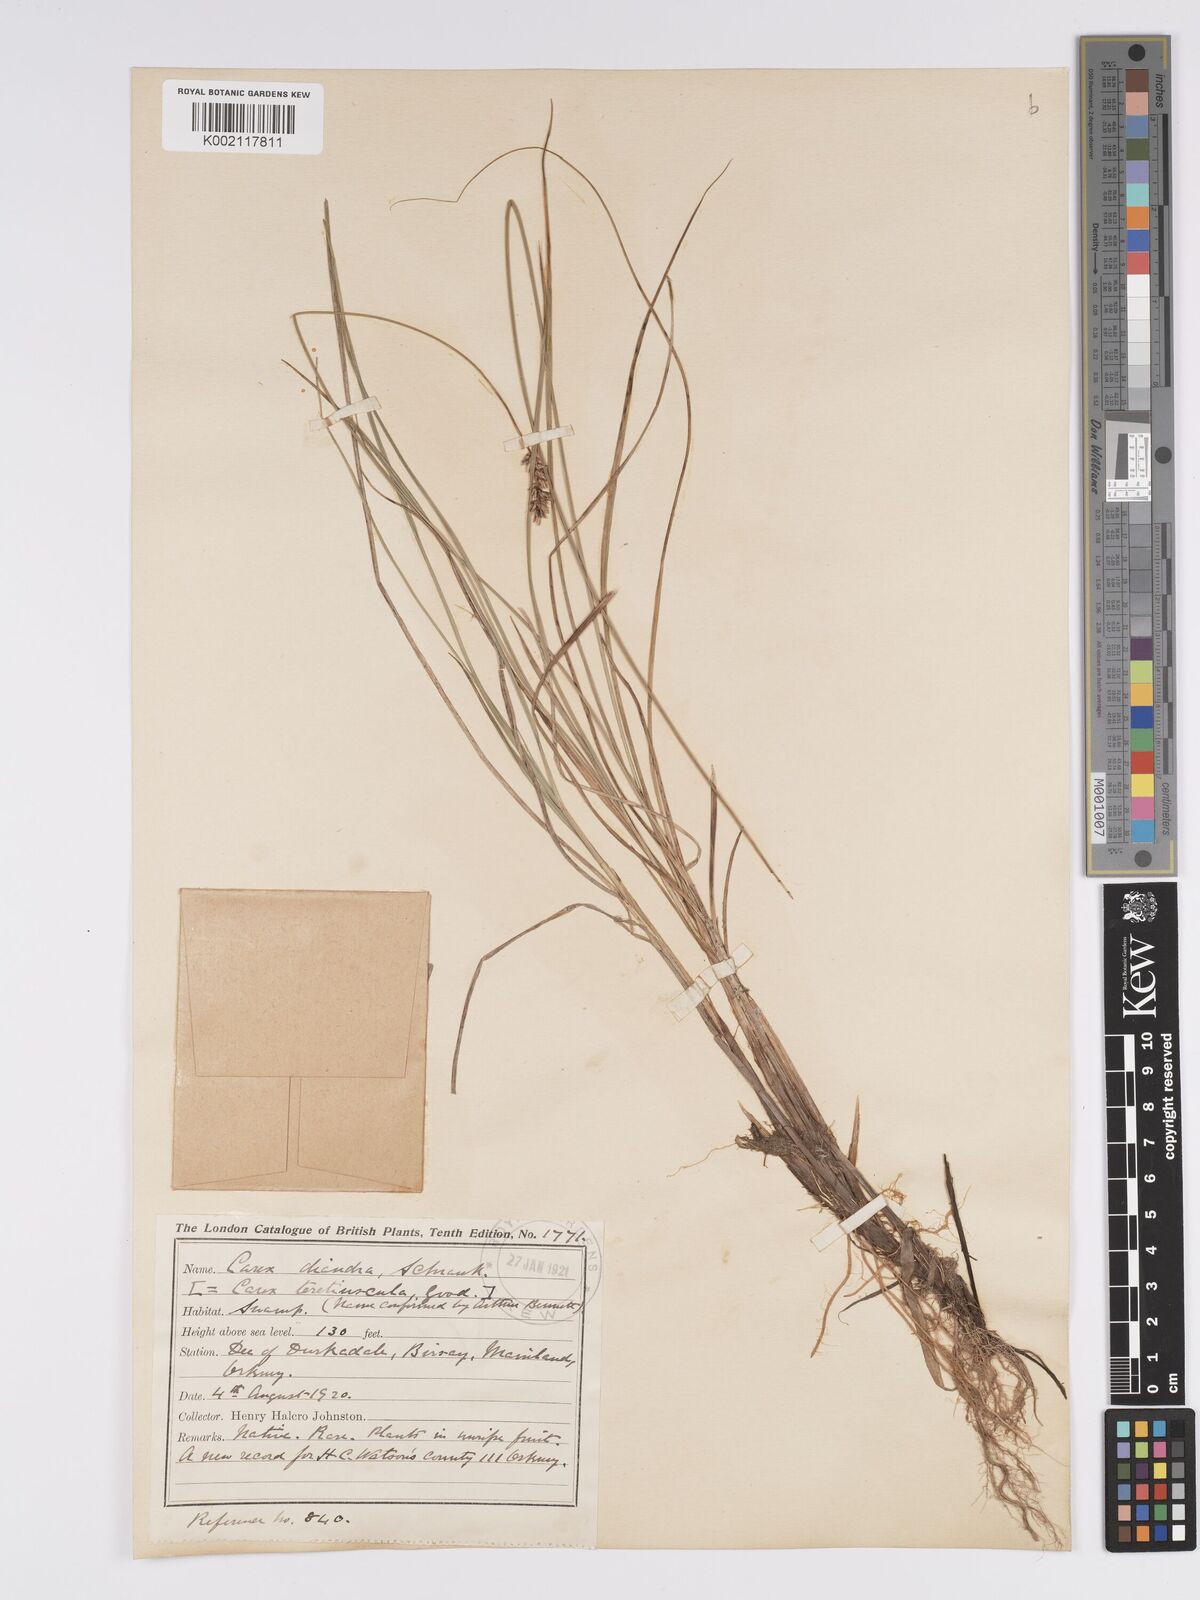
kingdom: Plantae
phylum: Tracheophyta
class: Liliopsida
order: Poales
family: Cyperaceae
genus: Carex
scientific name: Carex diandra
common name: Lesser tussock-sedge
